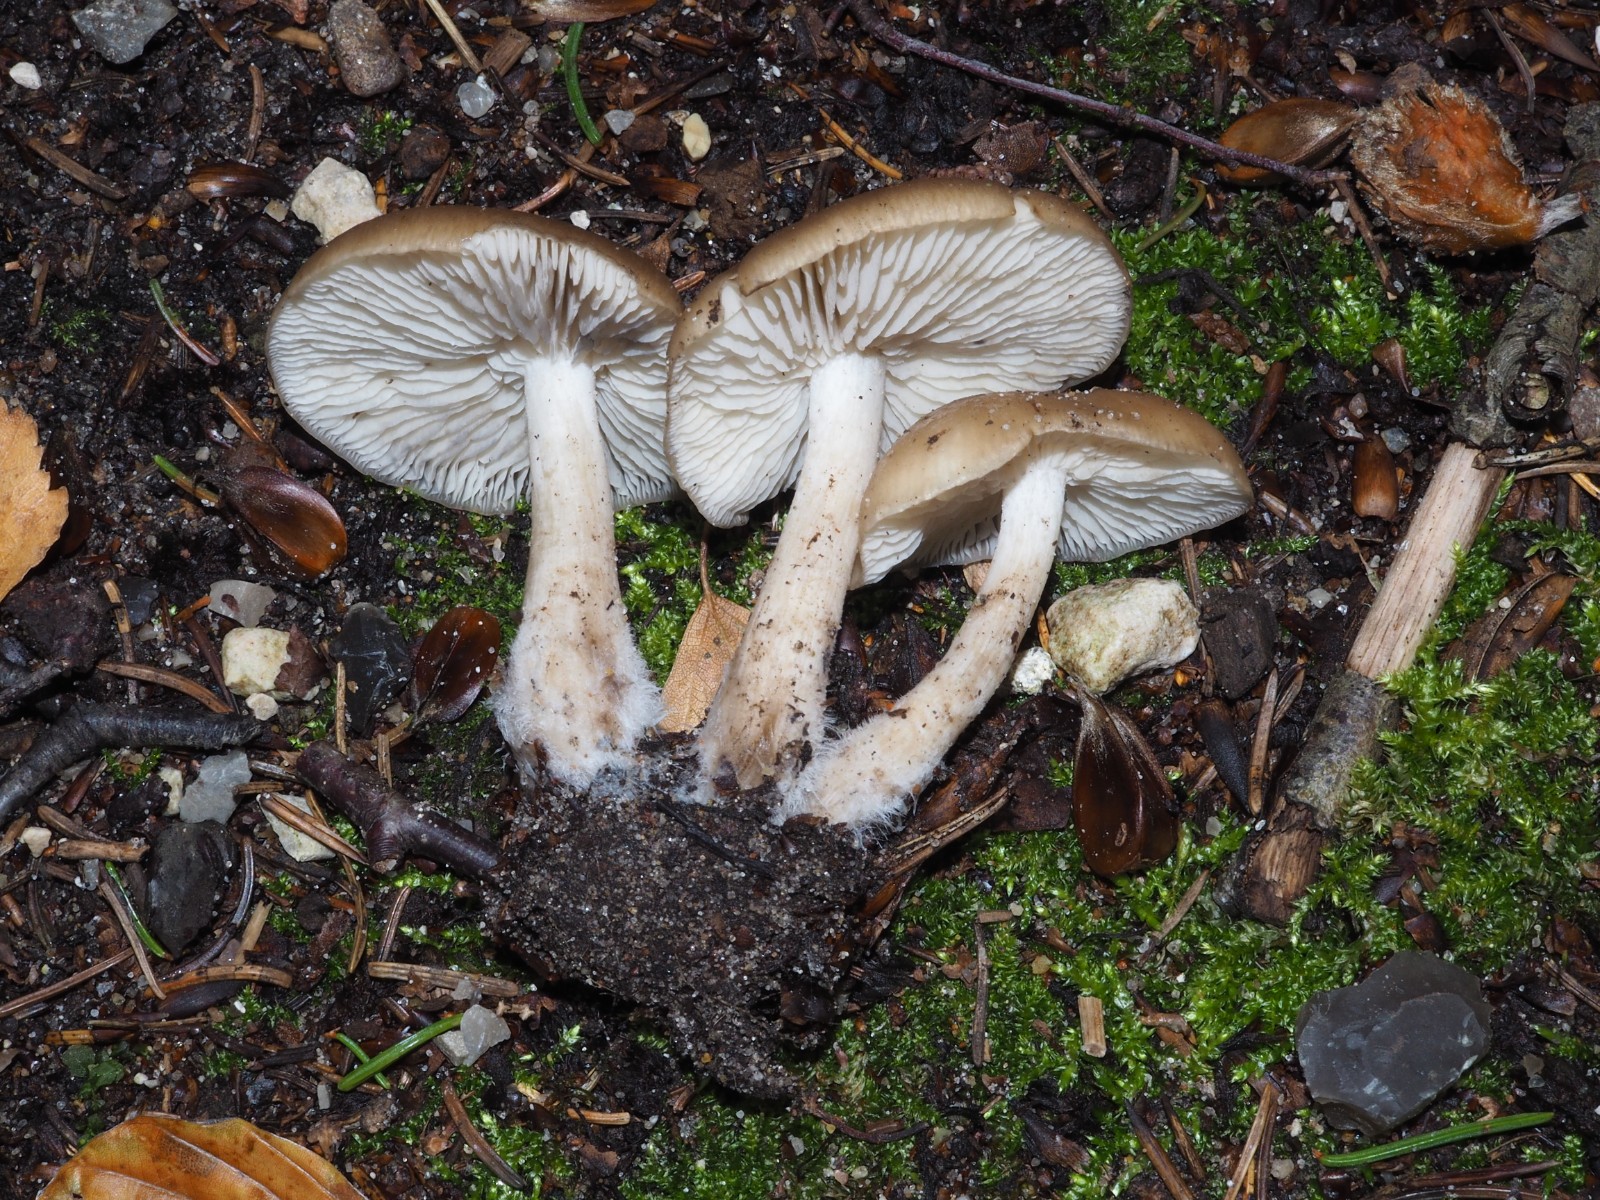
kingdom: Fungi
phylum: Basidiomycota
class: Agaricomycetes
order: Agaricales
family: Lyophyllaceae
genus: Lyophyllum
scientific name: Lyophyllum decastes
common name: Clustered domecap
